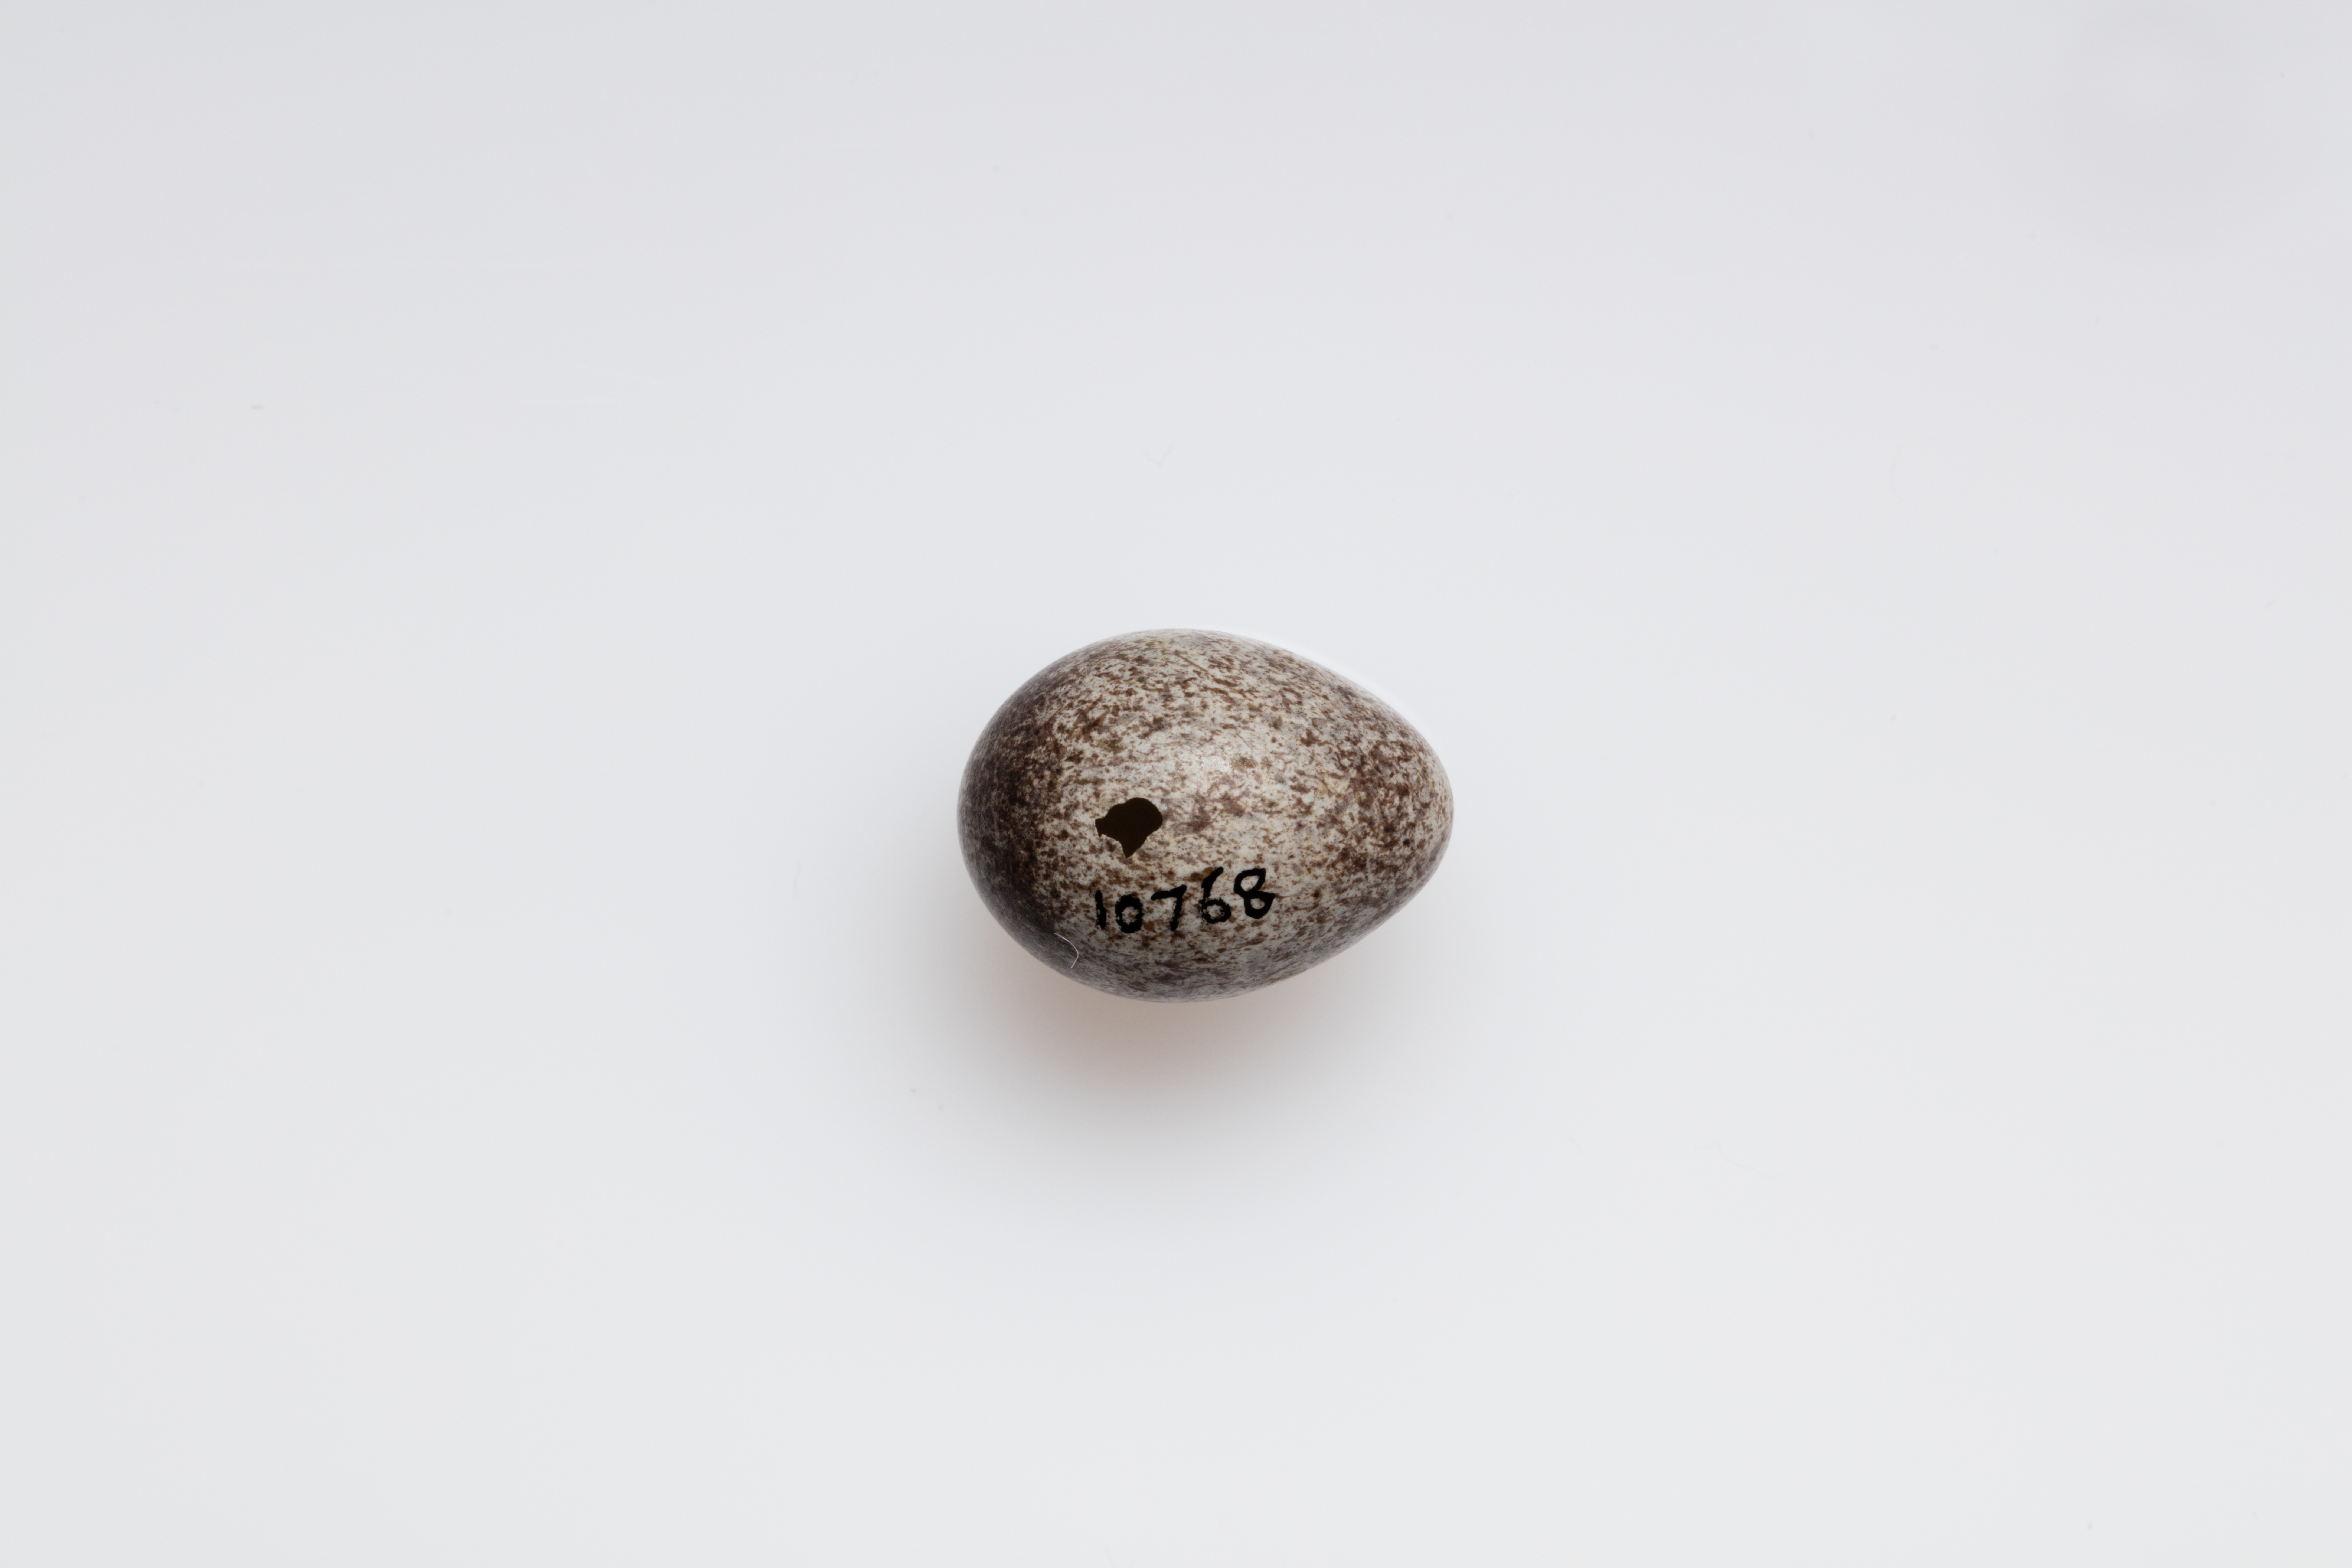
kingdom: Animalia
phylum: Chordata
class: Aves
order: Passeriformes
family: Motacillidae
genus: Anthus
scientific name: Anthus pratensis
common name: Meadow pipit
